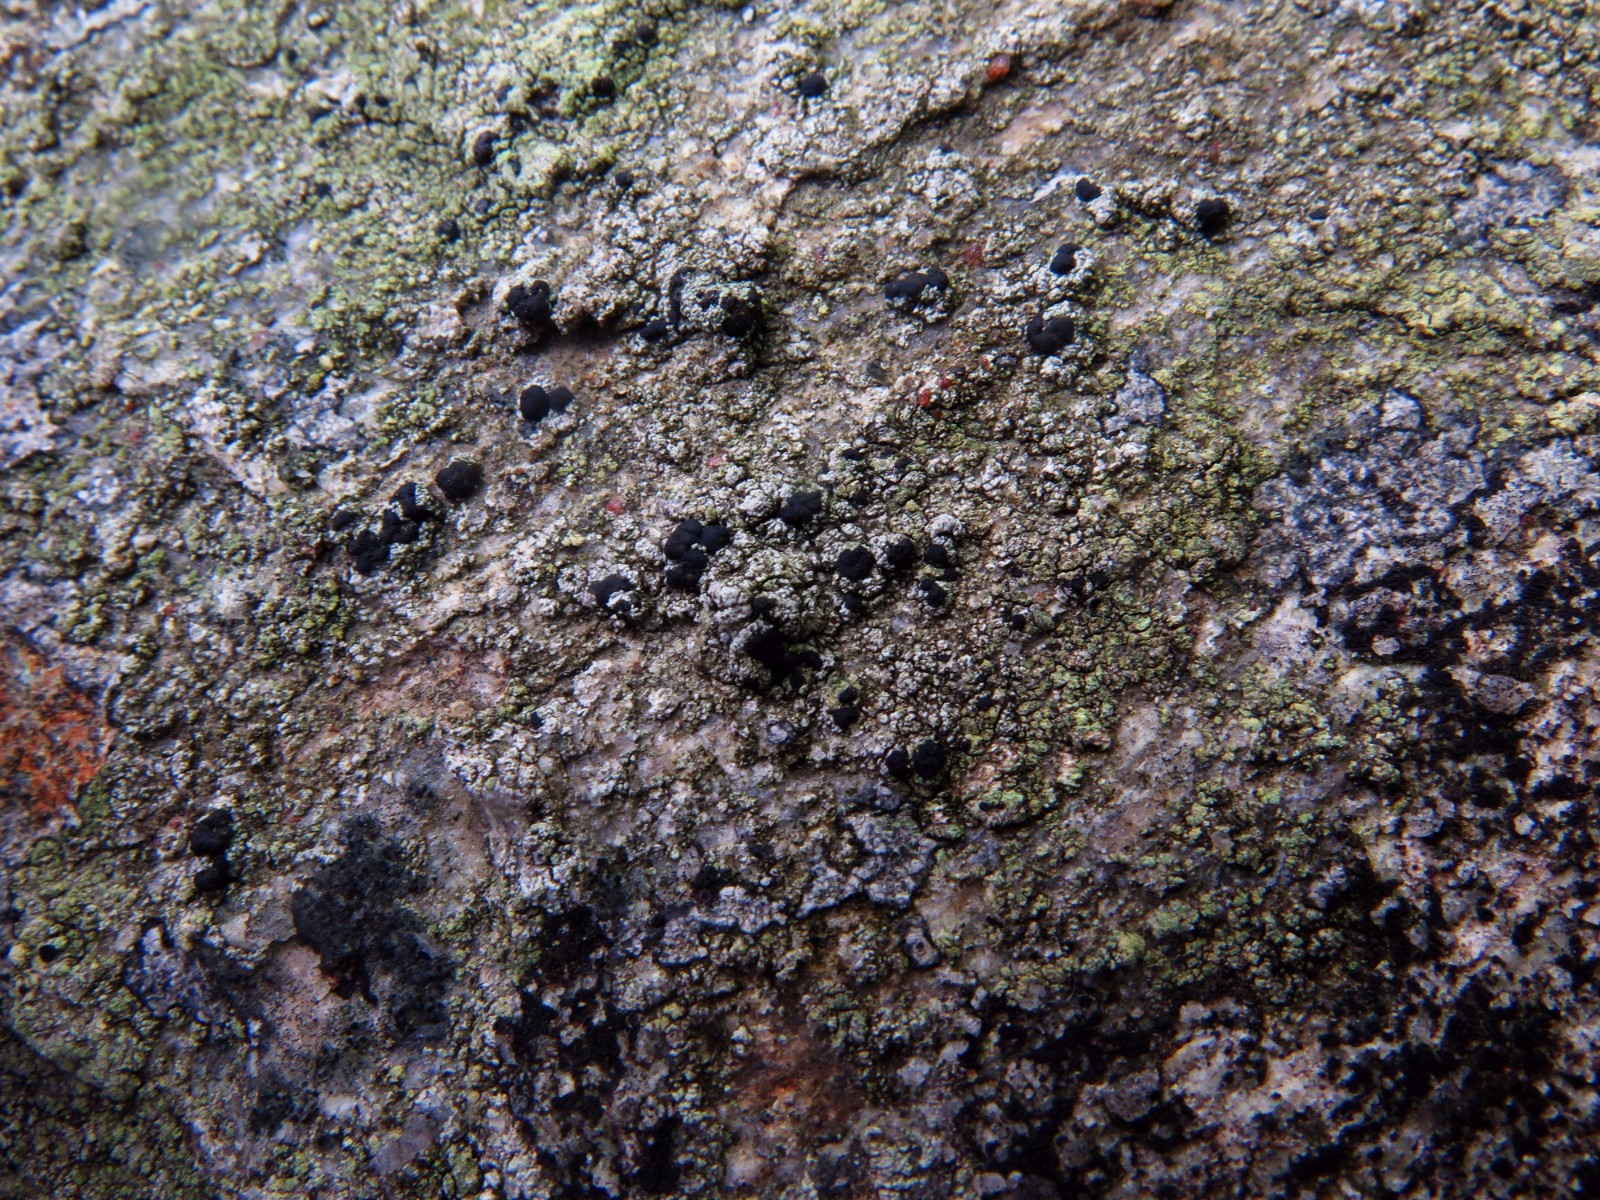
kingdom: Fungi
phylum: Ascomycota
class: Lecanoromycetes
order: Lecanorales
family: Lecanoraceae
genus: Lecidella
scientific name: Lecidella scabra
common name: skurvet skivelav
